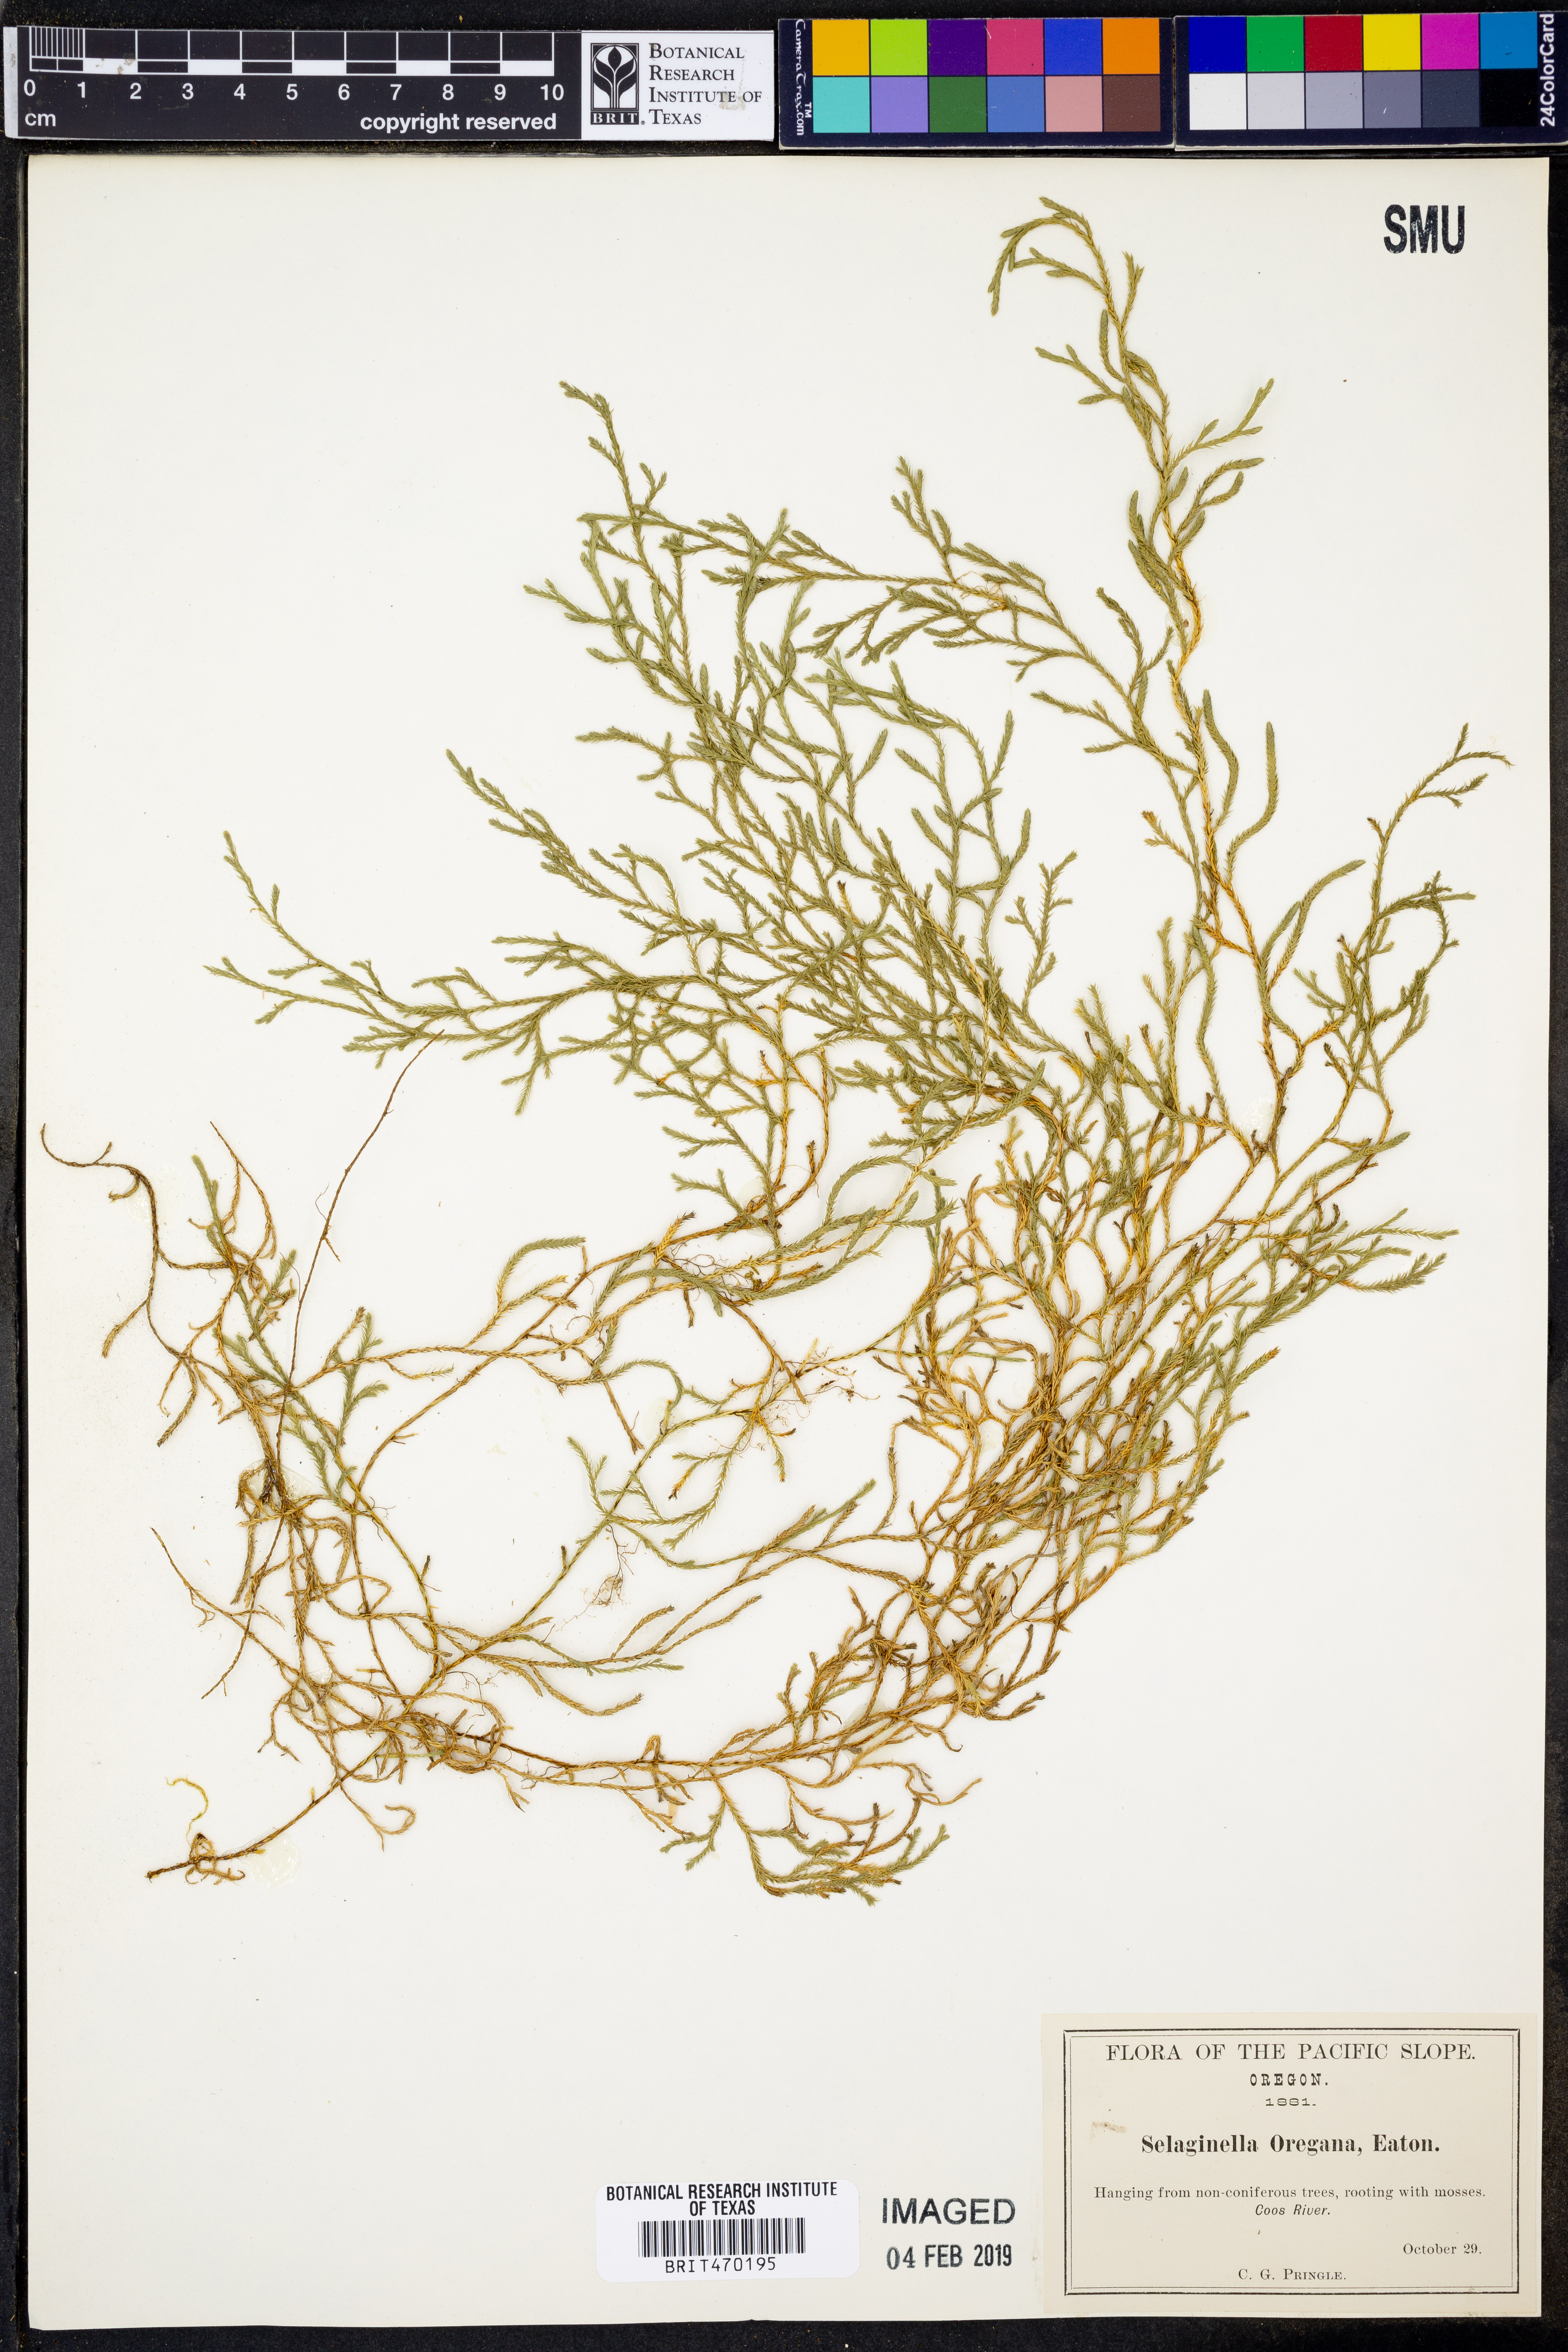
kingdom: Plantae
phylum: Tracheophyta
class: Lycopodiopsida
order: Selaginellales
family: Selaginellaceae
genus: Selaginella
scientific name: Selaginella oregana
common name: Oregon selaginella
